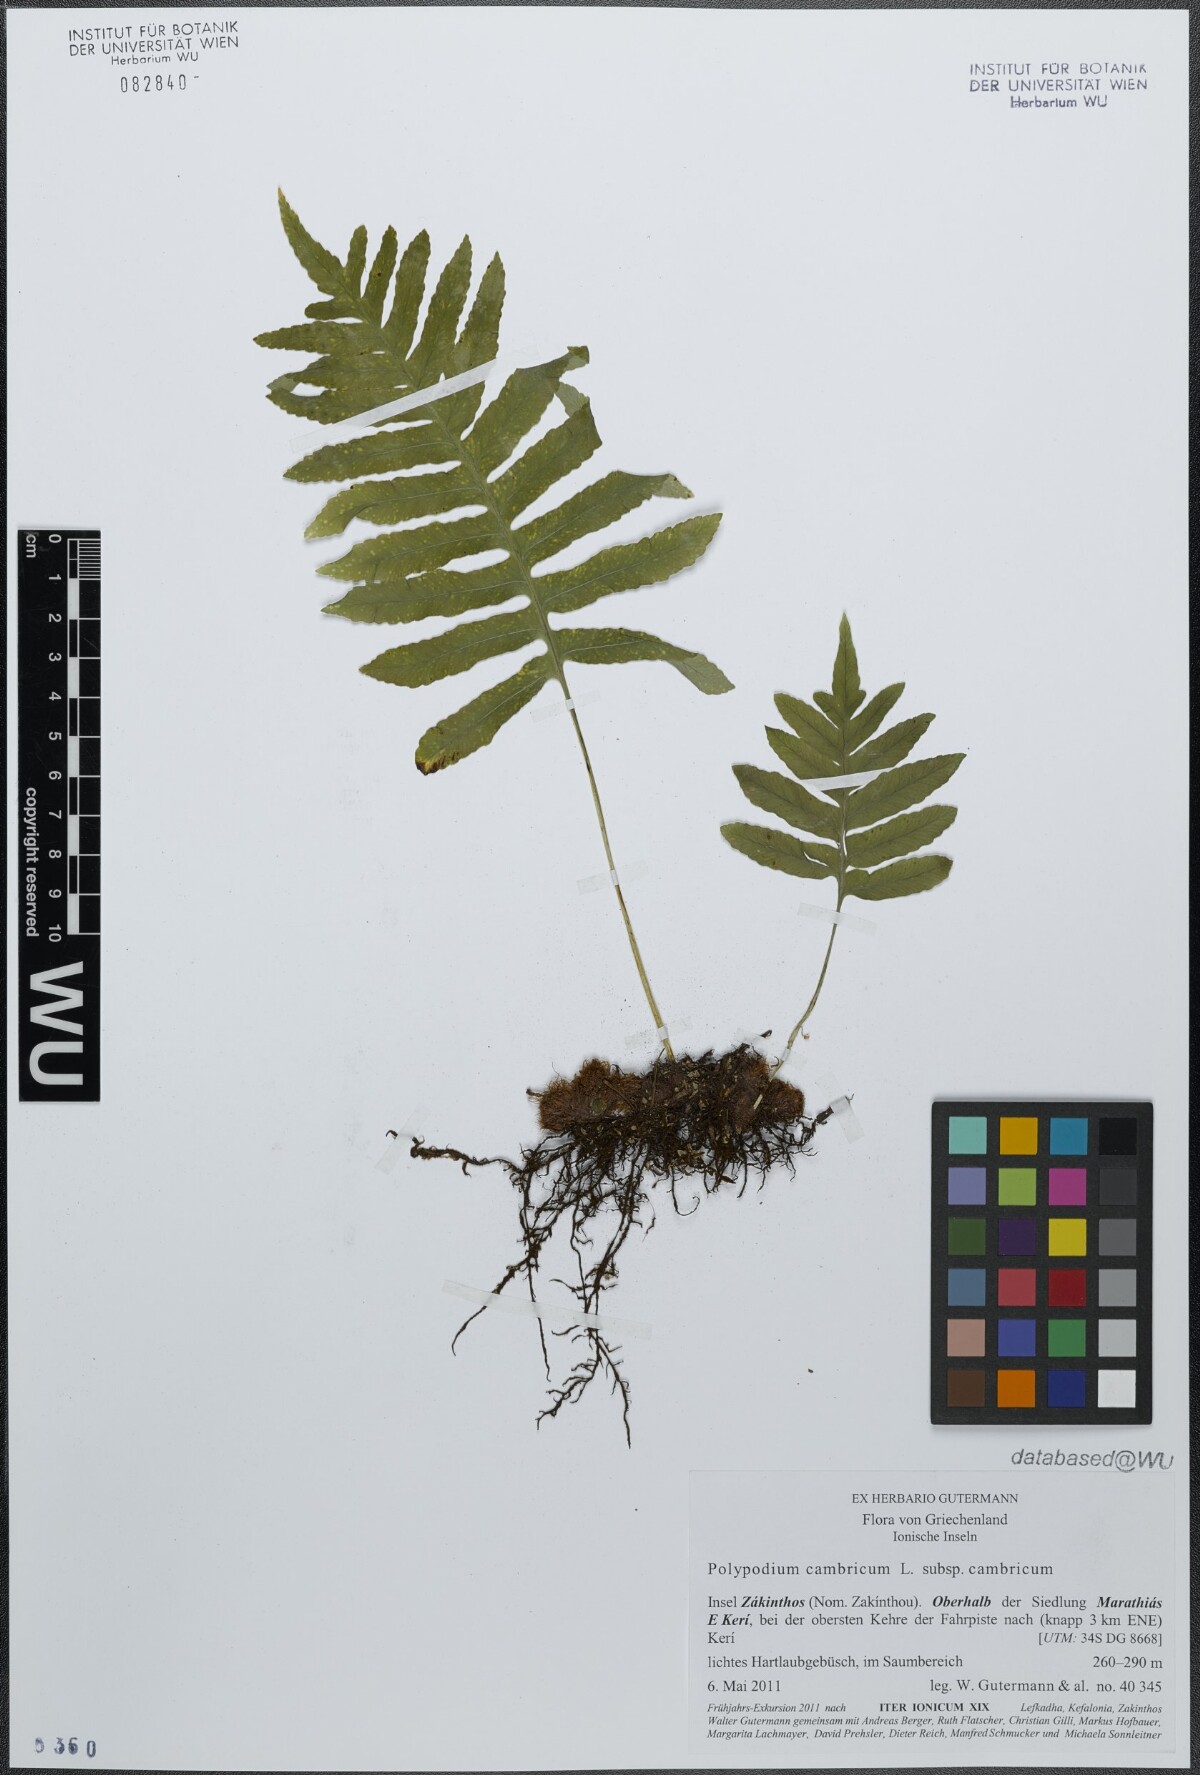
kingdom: Plantae
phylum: Tracheophyta
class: Polypodiopsida
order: Polypodiales
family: Polypodiaceae
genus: Polypodium
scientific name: Polypodium cambricum
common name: Southern polypody
